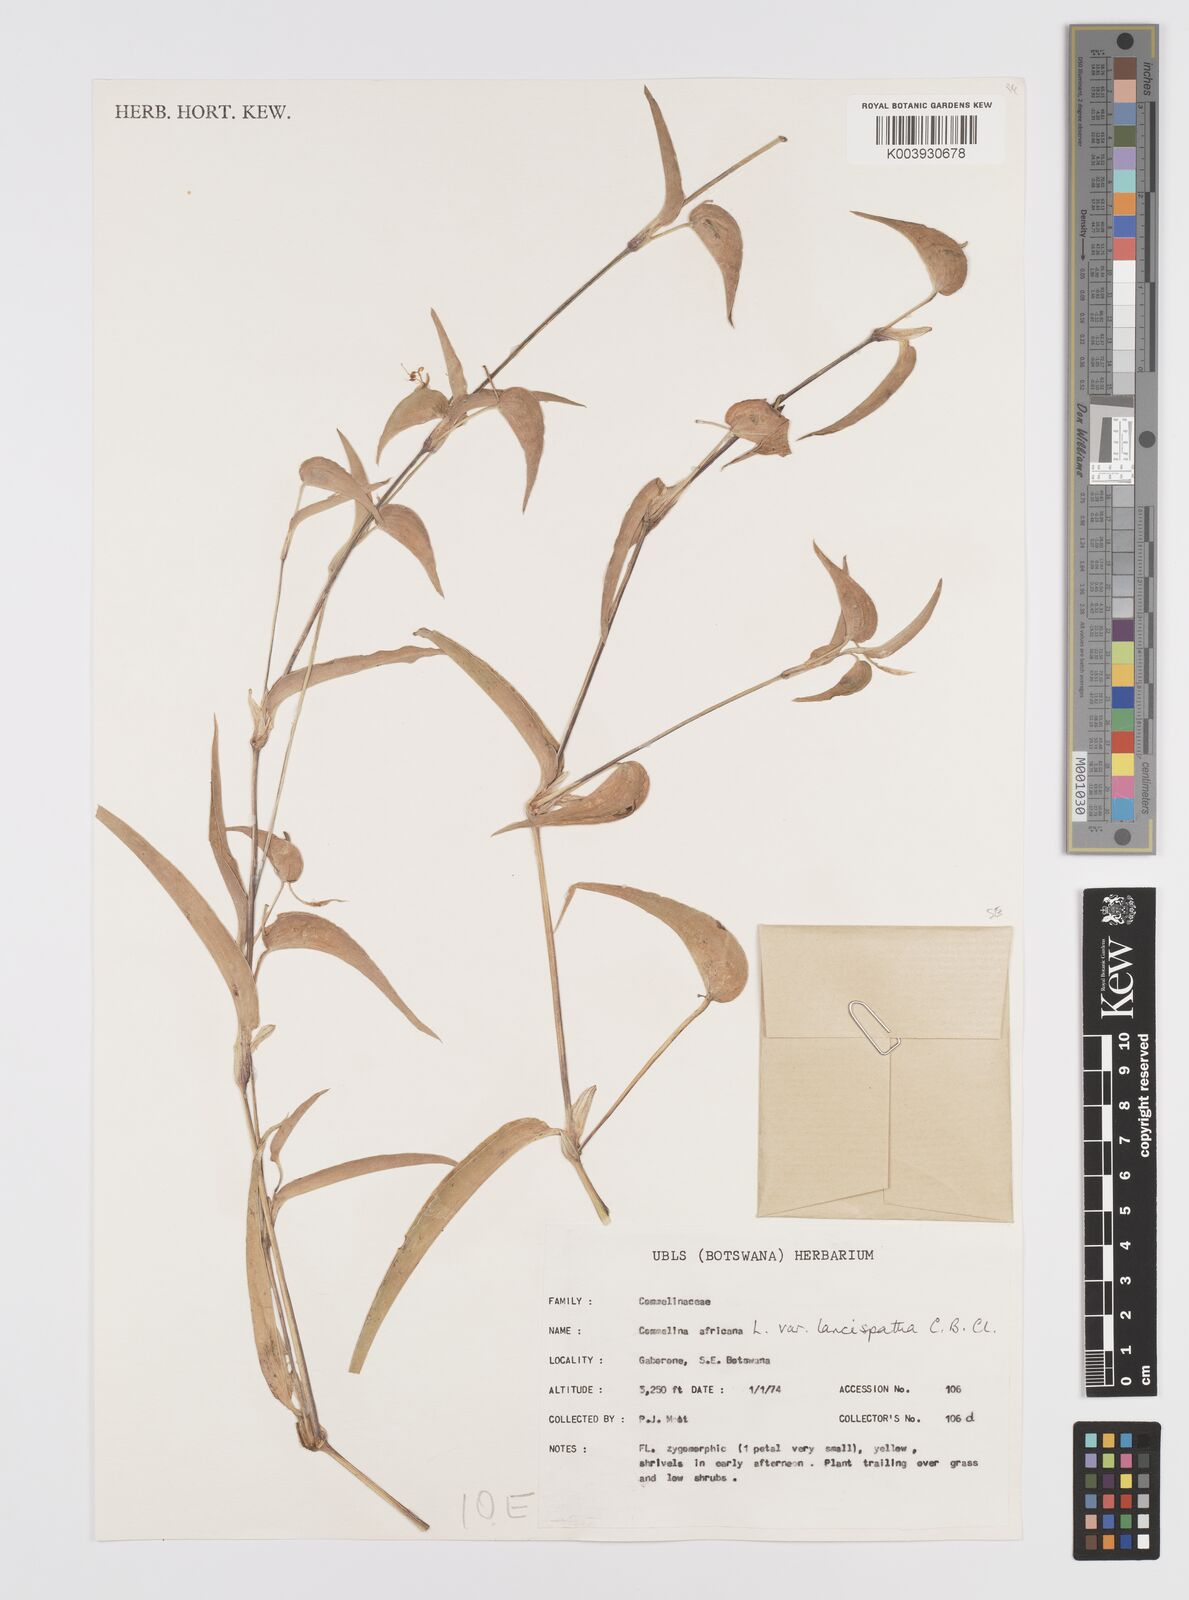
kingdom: Plantae
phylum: Tracheophyta
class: Liliopsida
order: Commelinales
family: Commelinaceae
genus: Commelina
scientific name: Commelina africana
